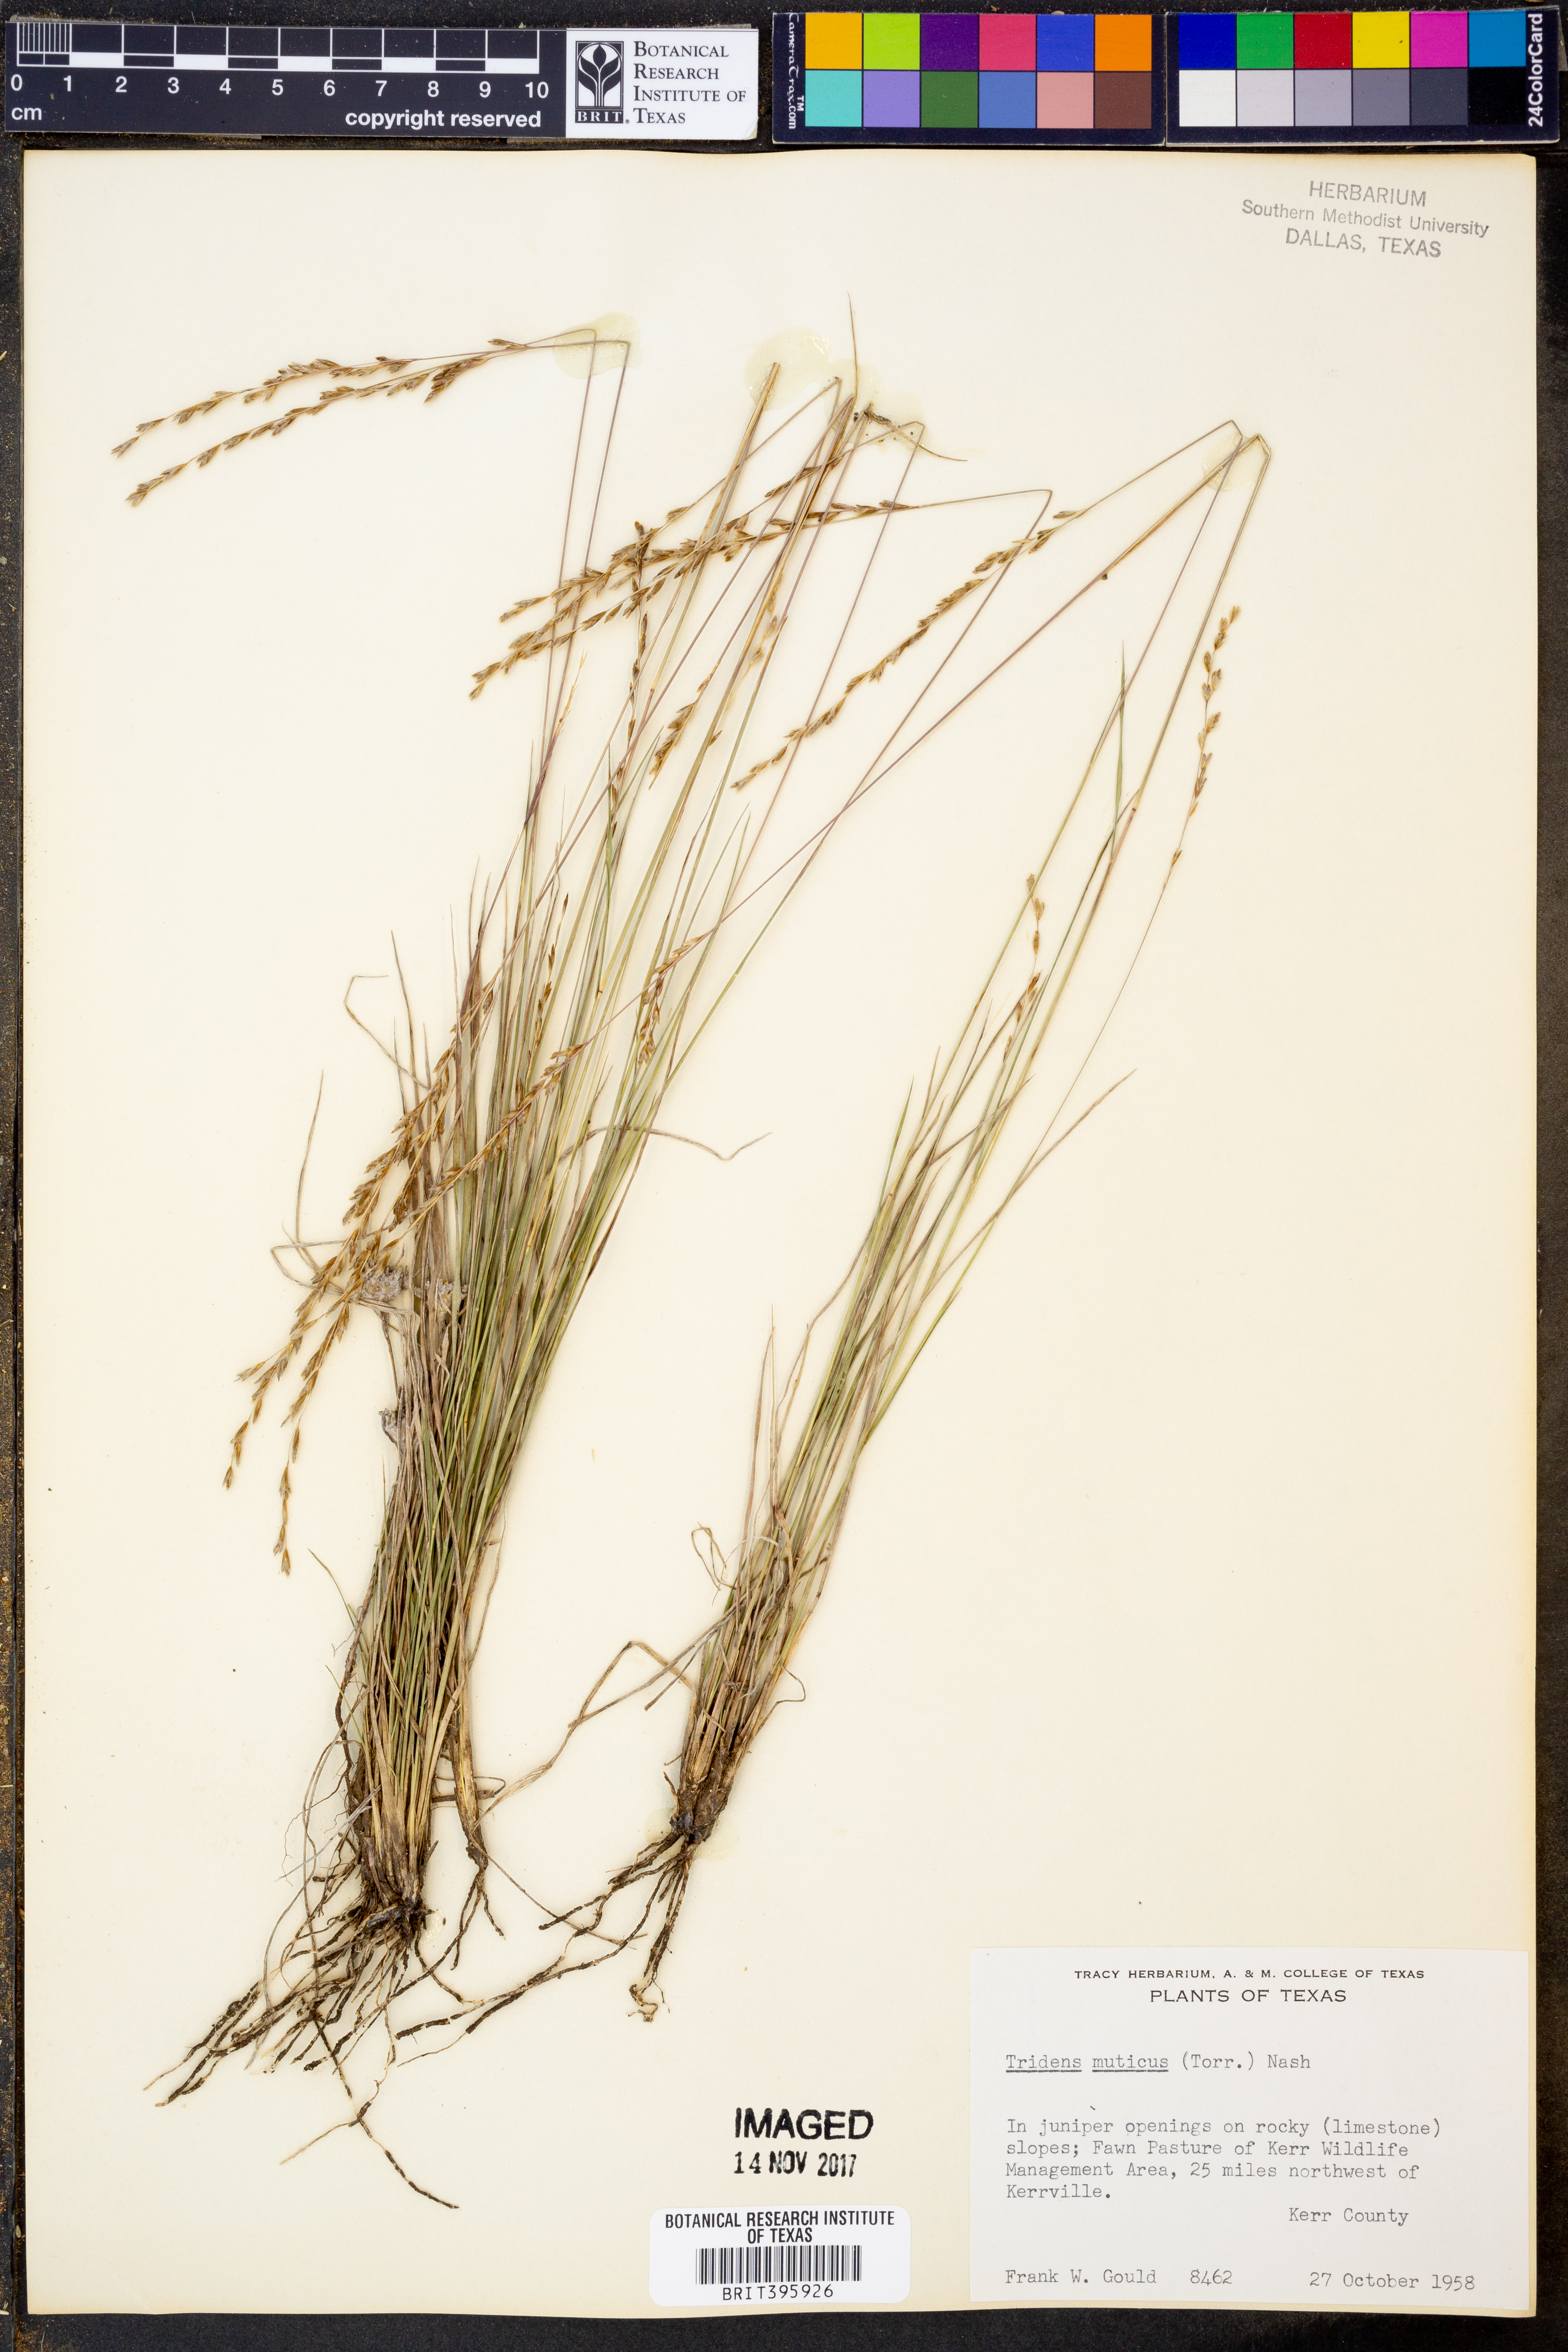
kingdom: Plantae
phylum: Tracheophyta
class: Liliopsida
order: Poales
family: Poaceae
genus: Tridentopsis
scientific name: Tridentopsis mutica
